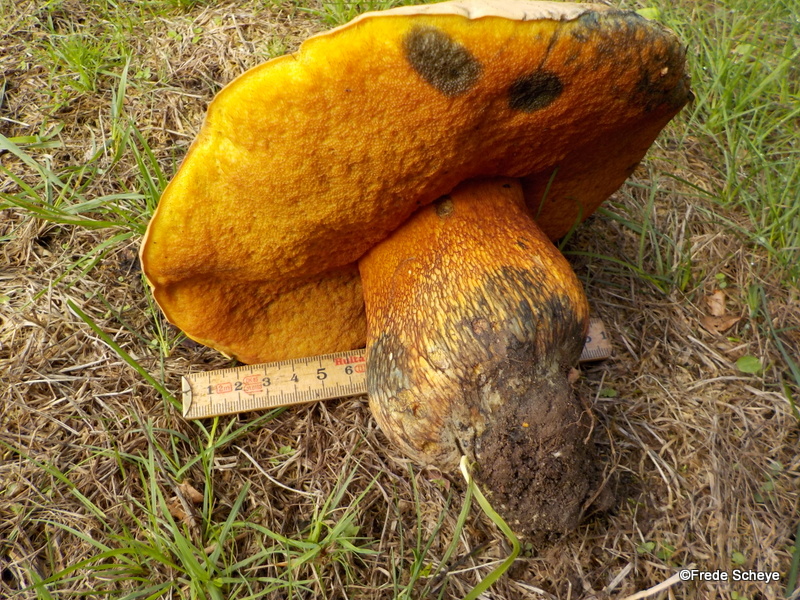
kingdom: Fungi
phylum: Basidiomycota
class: Agaricomycetes
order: Boletales
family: Boletaceae
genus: Suillellus
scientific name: Suillellus luridus
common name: netstokket indigorørhat
